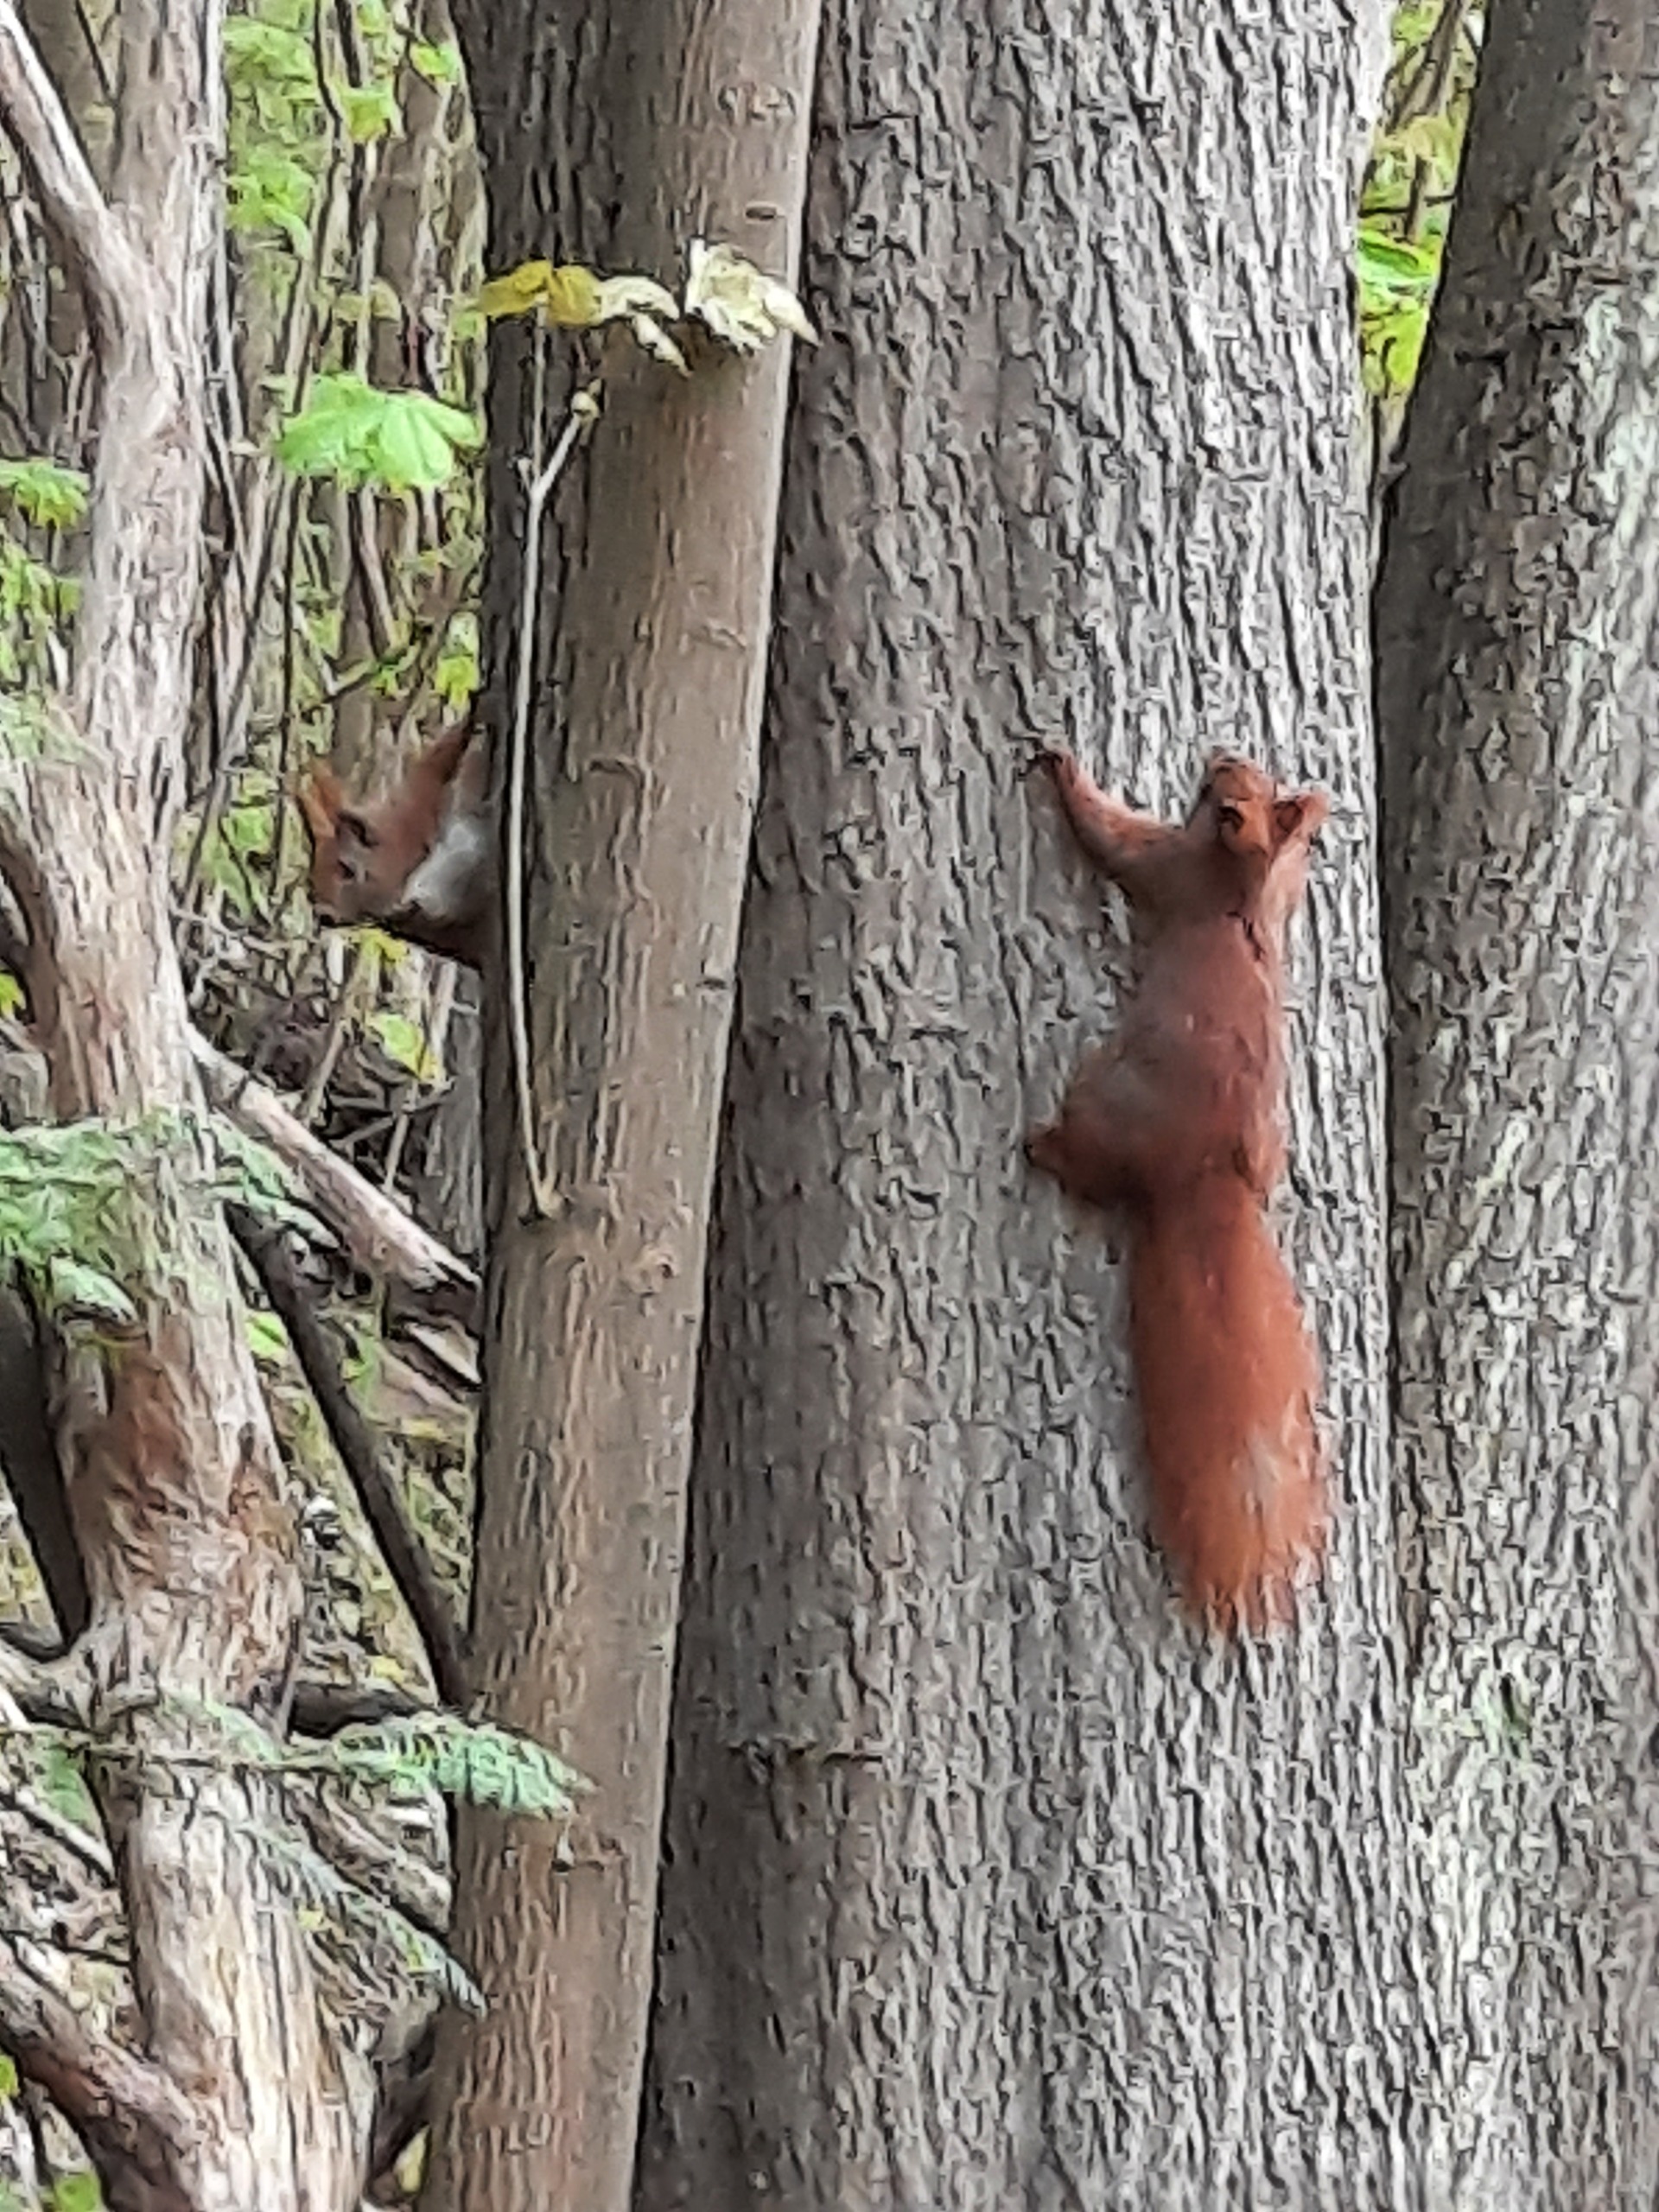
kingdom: Animalia
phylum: Chordata
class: Mammalia
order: Rodentia
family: Sciuridae
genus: Sciurus
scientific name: Sciurus vulgaris
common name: Egern
